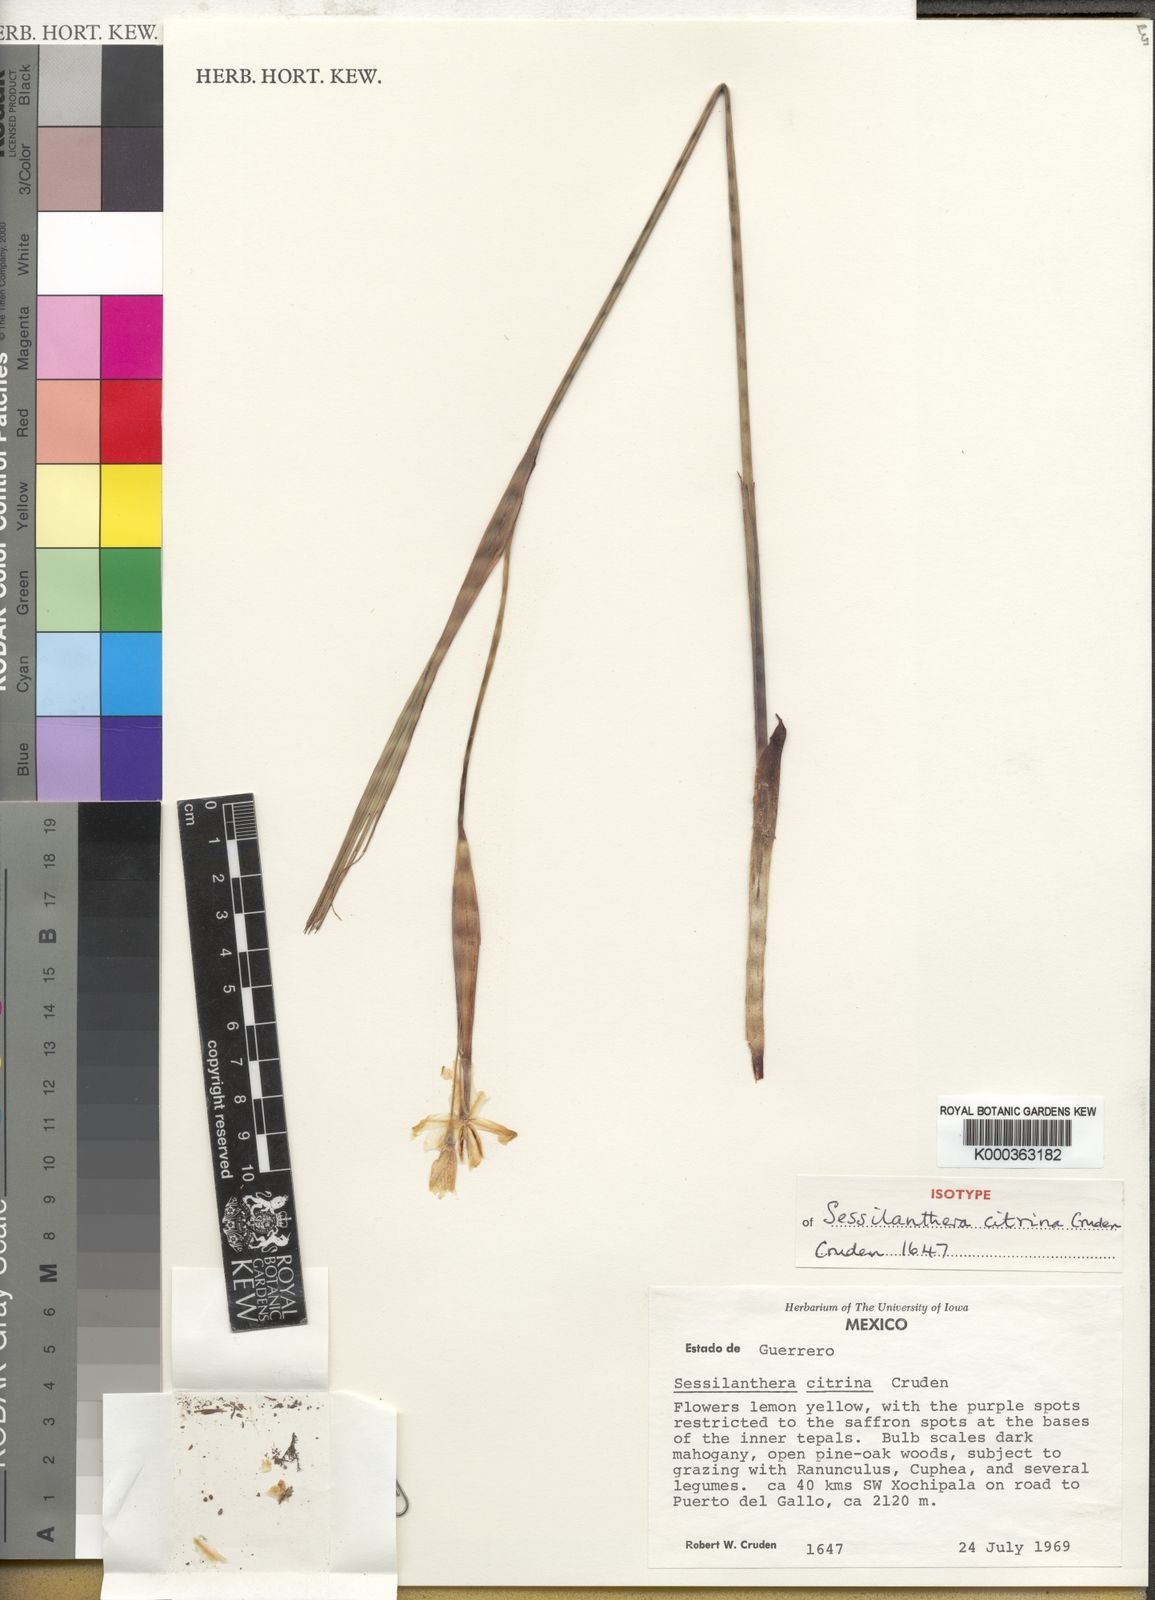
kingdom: Plantae
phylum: Tracheophyta
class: Liliopsida
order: Asparagales
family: Iridaceae
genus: Tigridia
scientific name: Tigridia citrina
